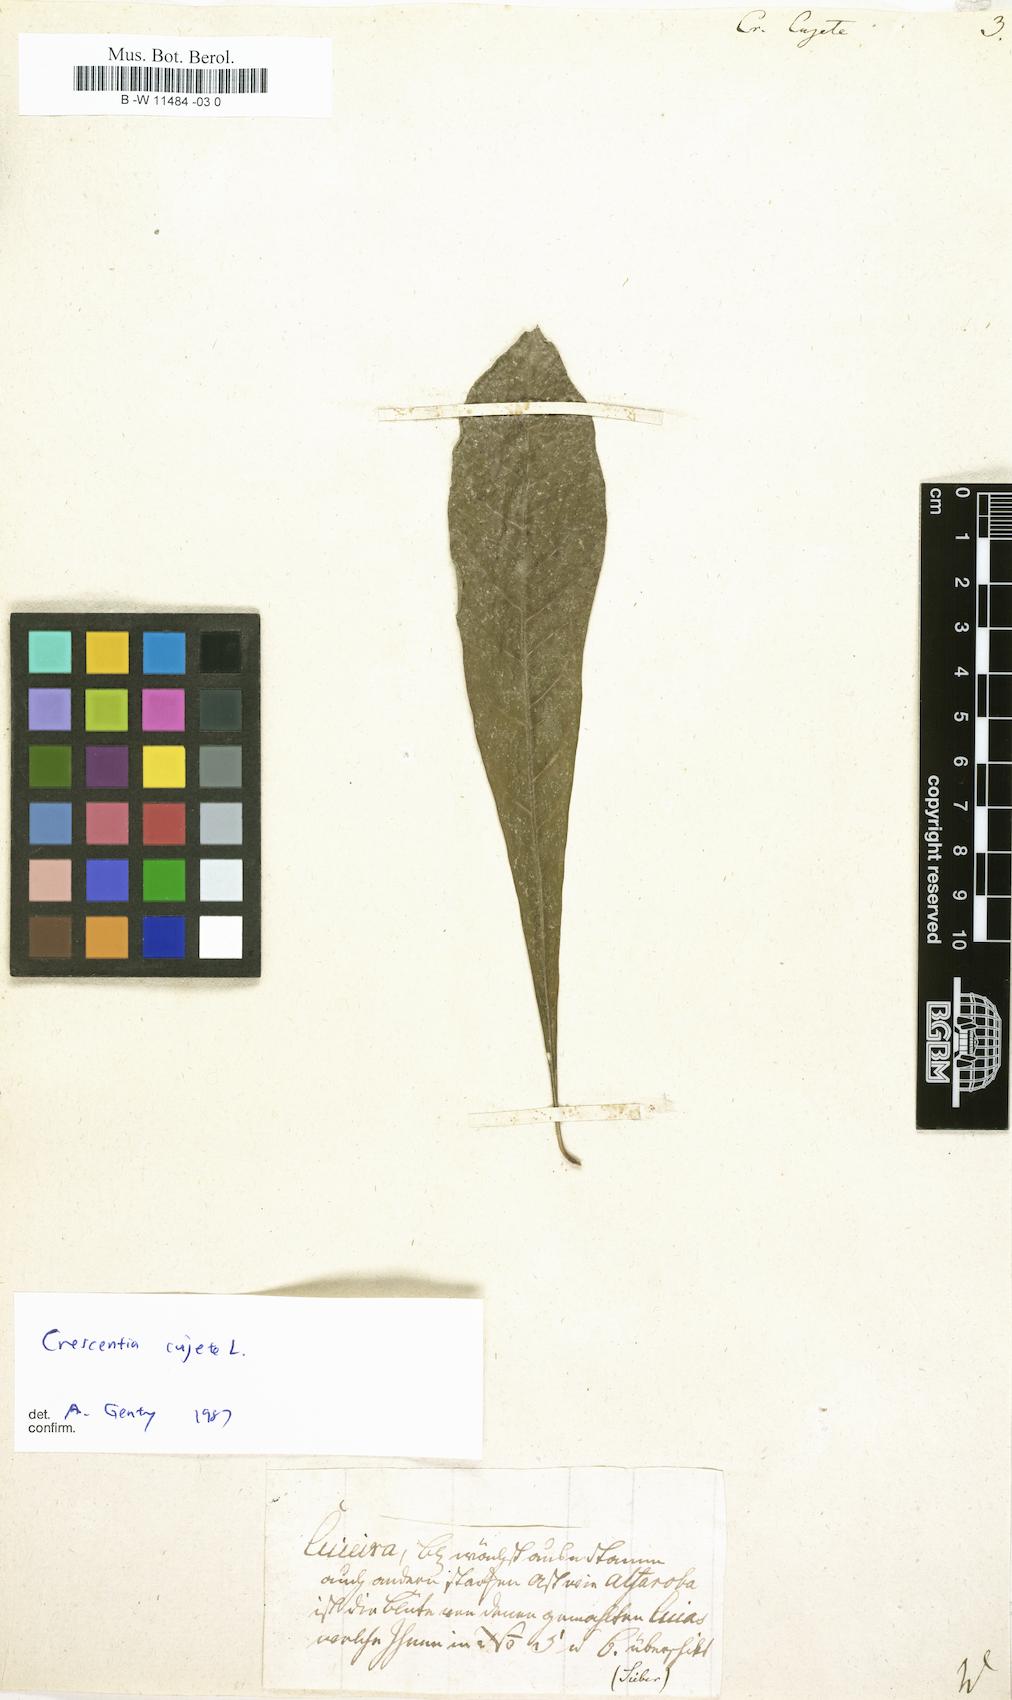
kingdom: Plantae
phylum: Tracheophyta
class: Magnoliopsida
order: Lamiales
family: Bignoniaceae
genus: Crescentia
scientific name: Crescentia cujete
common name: Calabash
